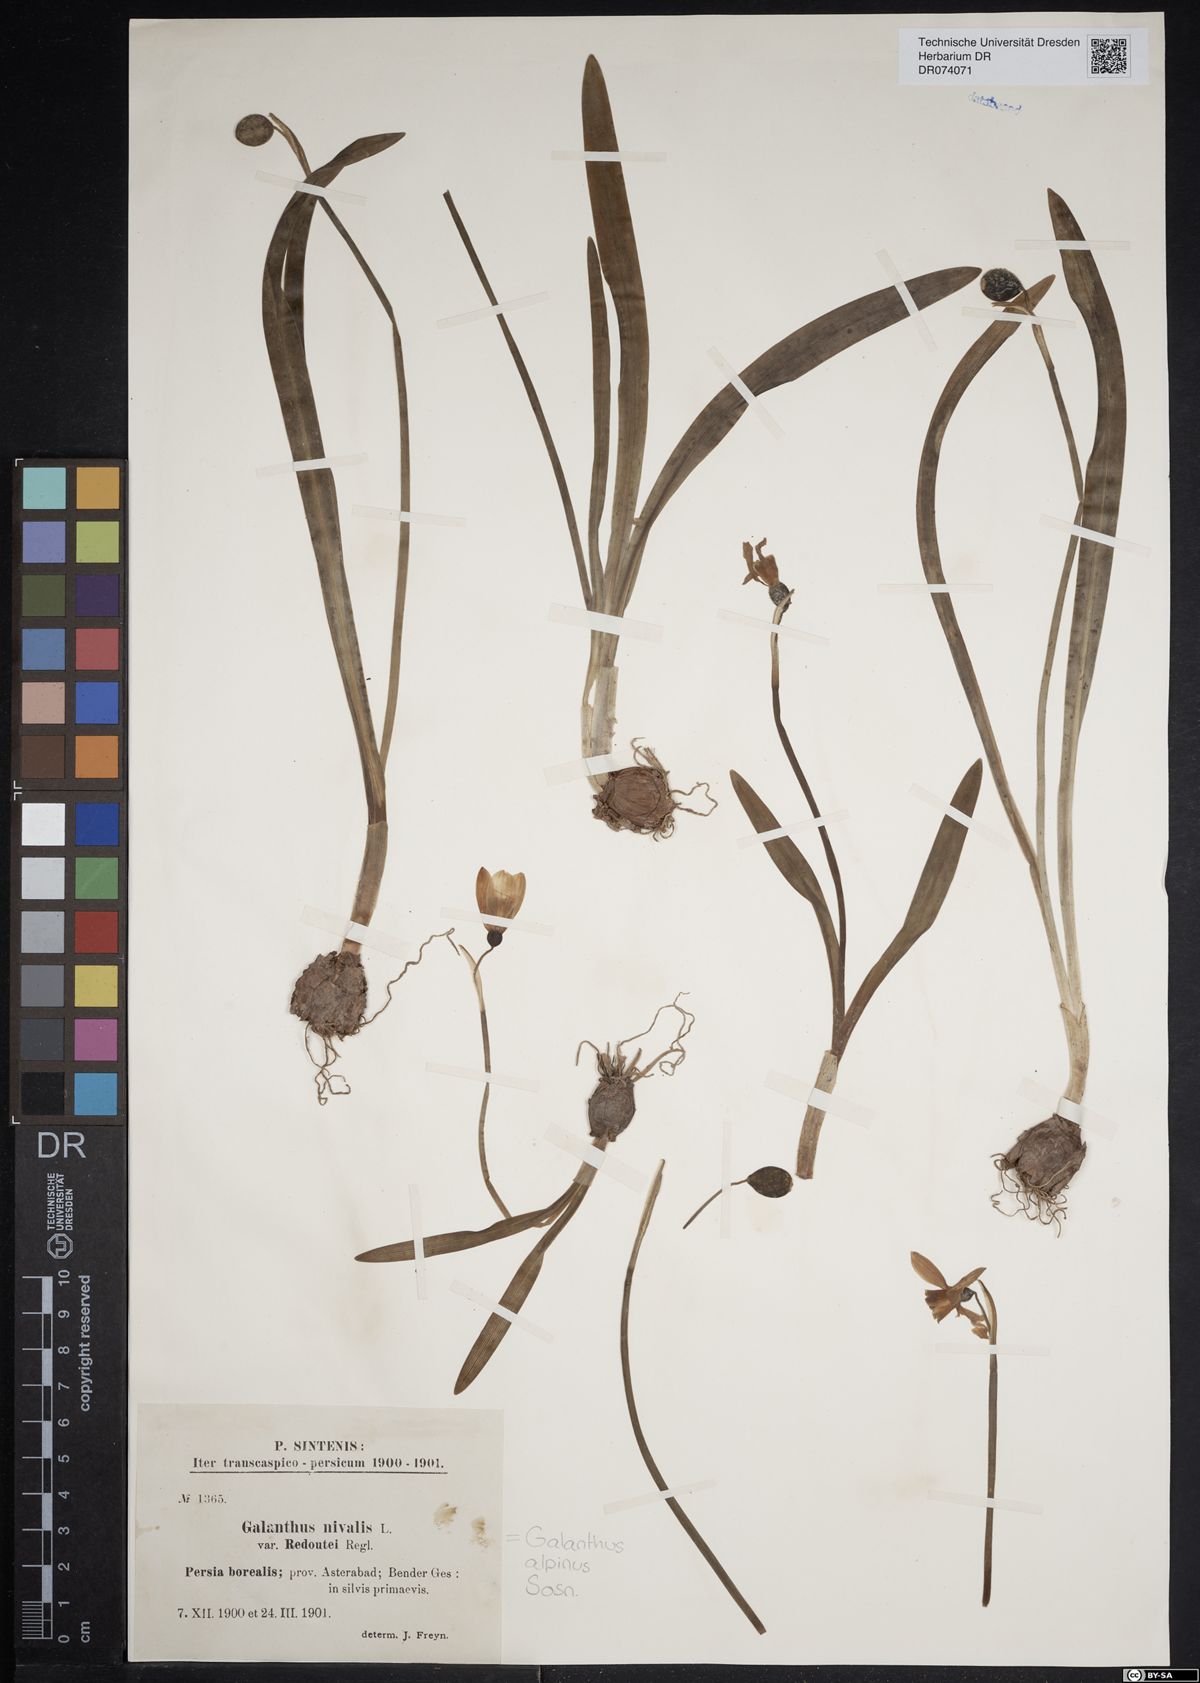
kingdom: Plantae
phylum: Tracheophyta
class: Liliopsida
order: Asparagales
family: Amaryllidaceae
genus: Galanthus
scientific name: Galanthus alpinus
